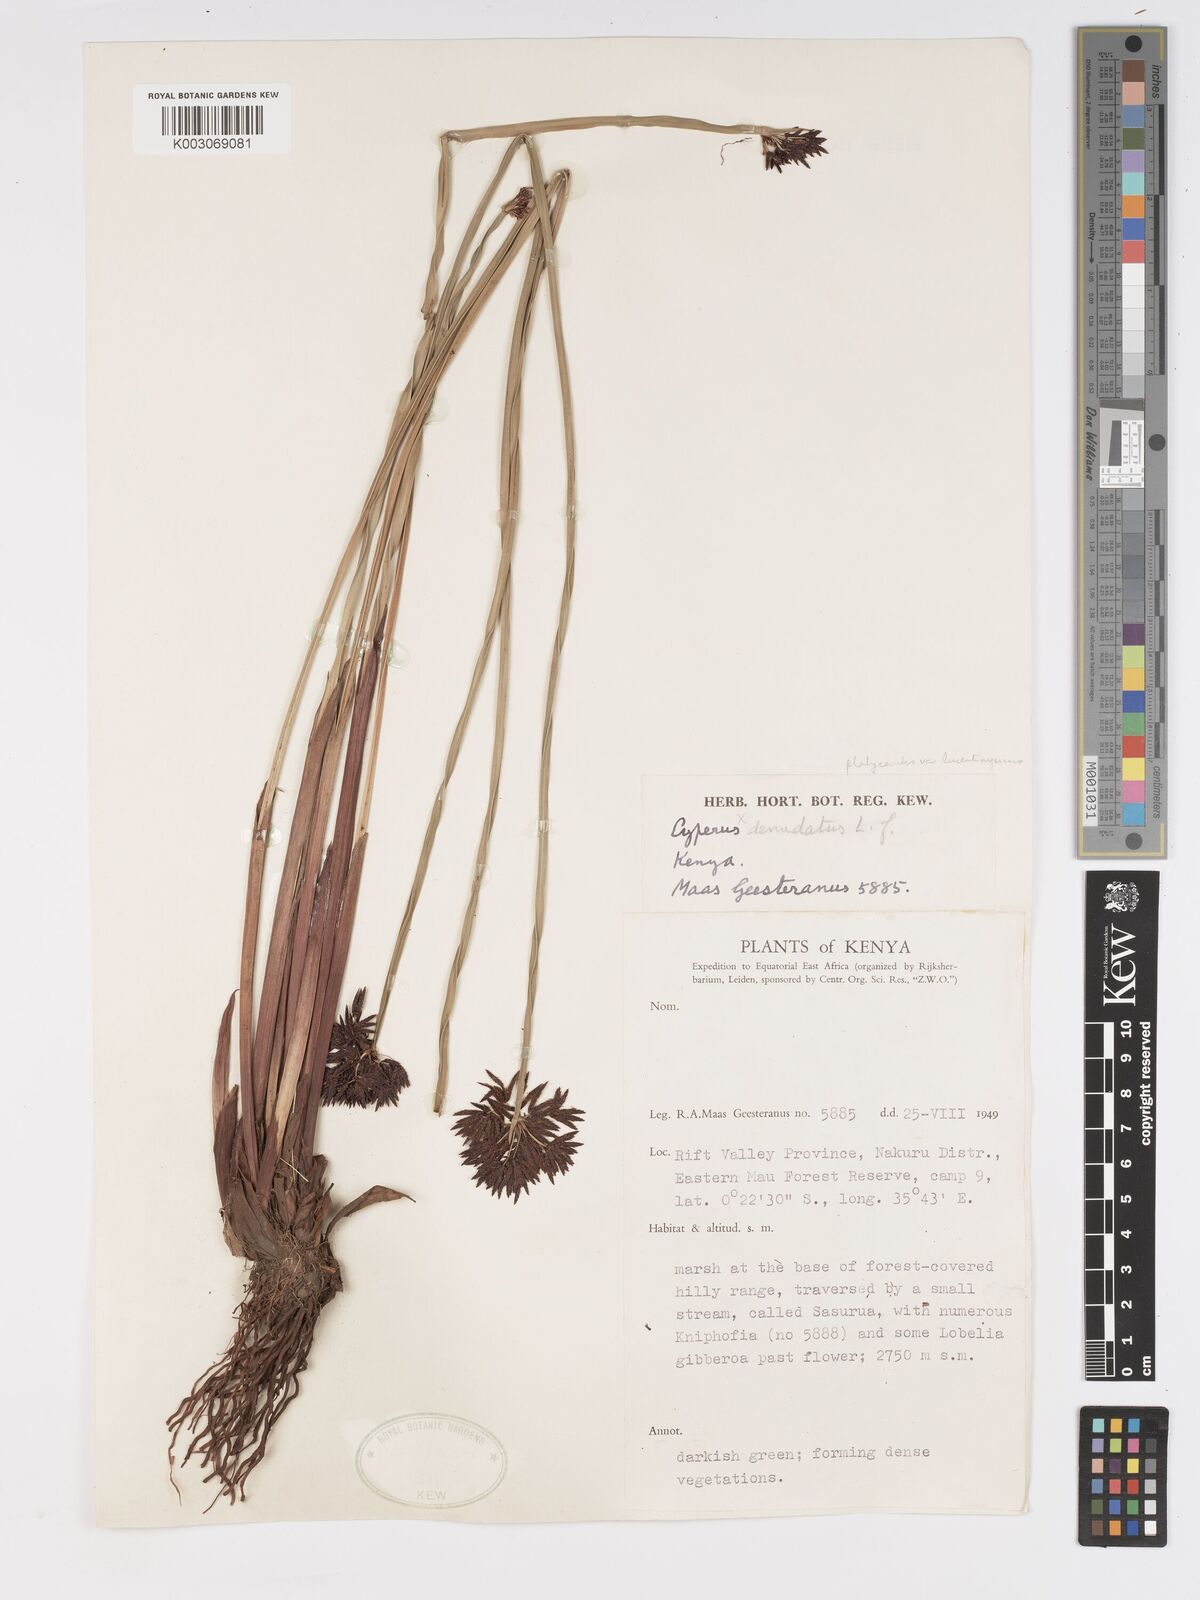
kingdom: Plantae
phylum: Tracheophyta
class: Liliopsida
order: Poales
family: Cyperaceae
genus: Cyperus
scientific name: Cyperus platycaulis
